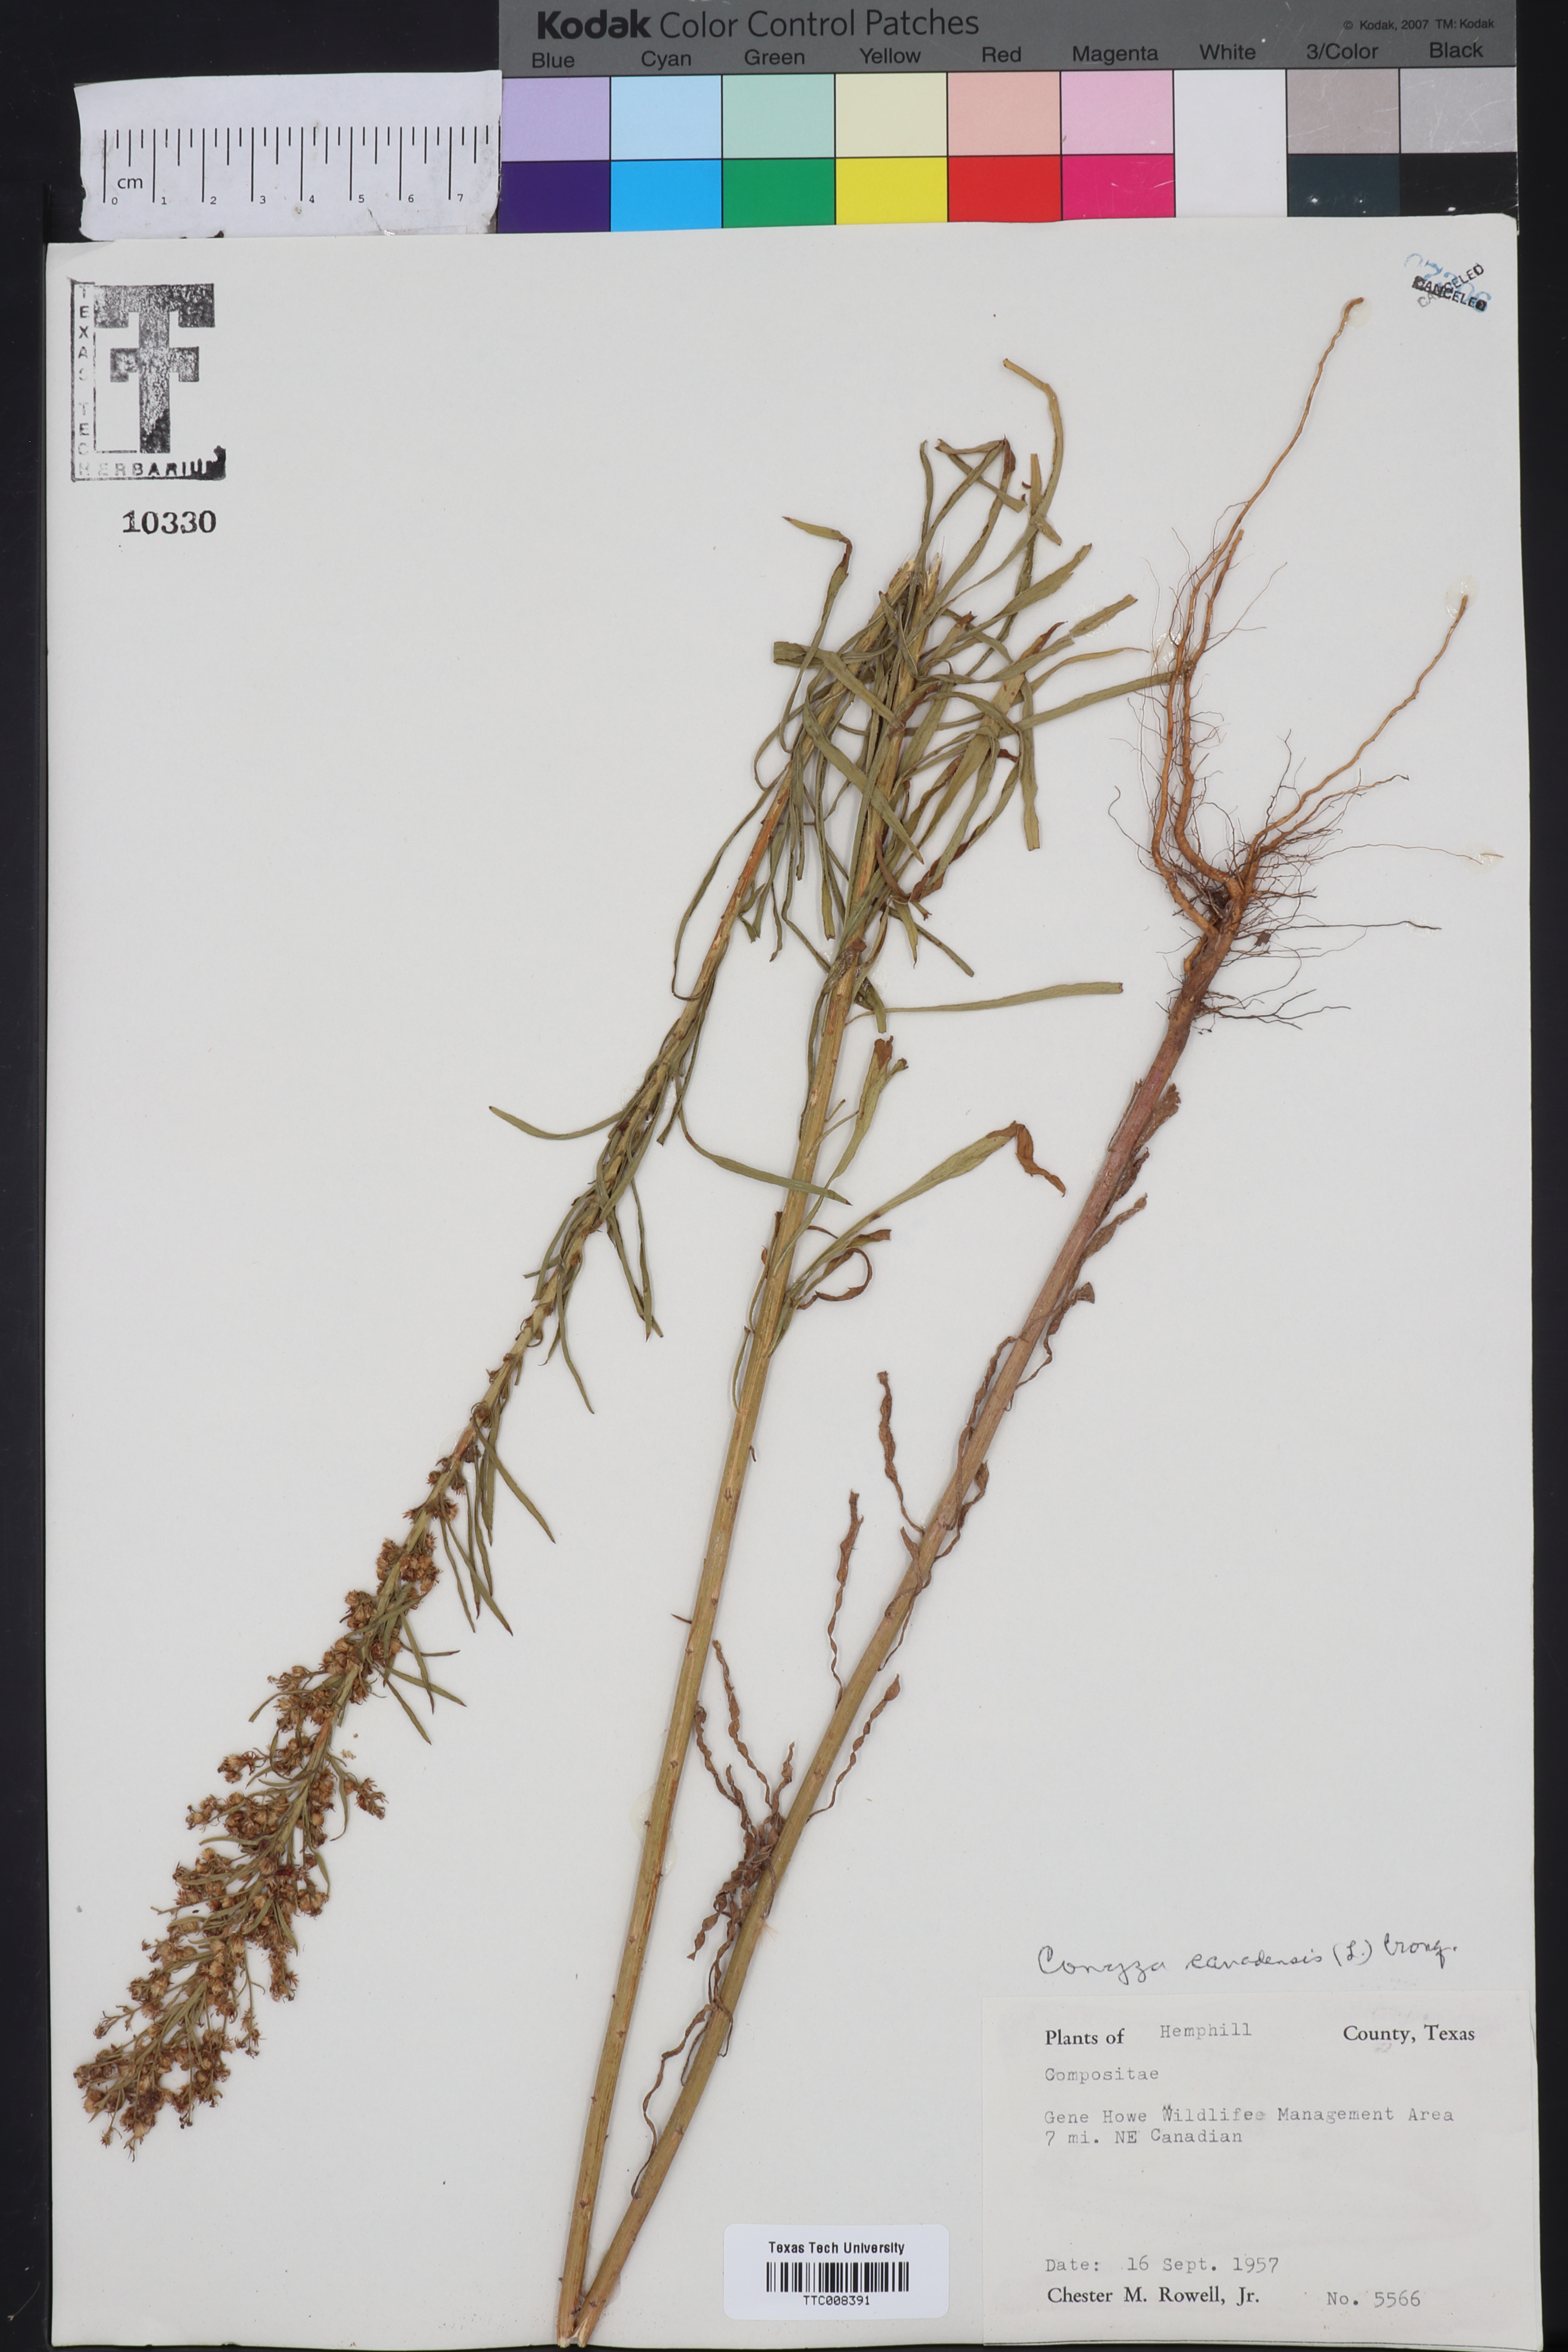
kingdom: Plantae
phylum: Tracheophyta
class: Magnoliopsida
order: Asterales
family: Asteraceae
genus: Erigeron
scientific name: Erigeron canadensis
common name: Canadian fleabane
